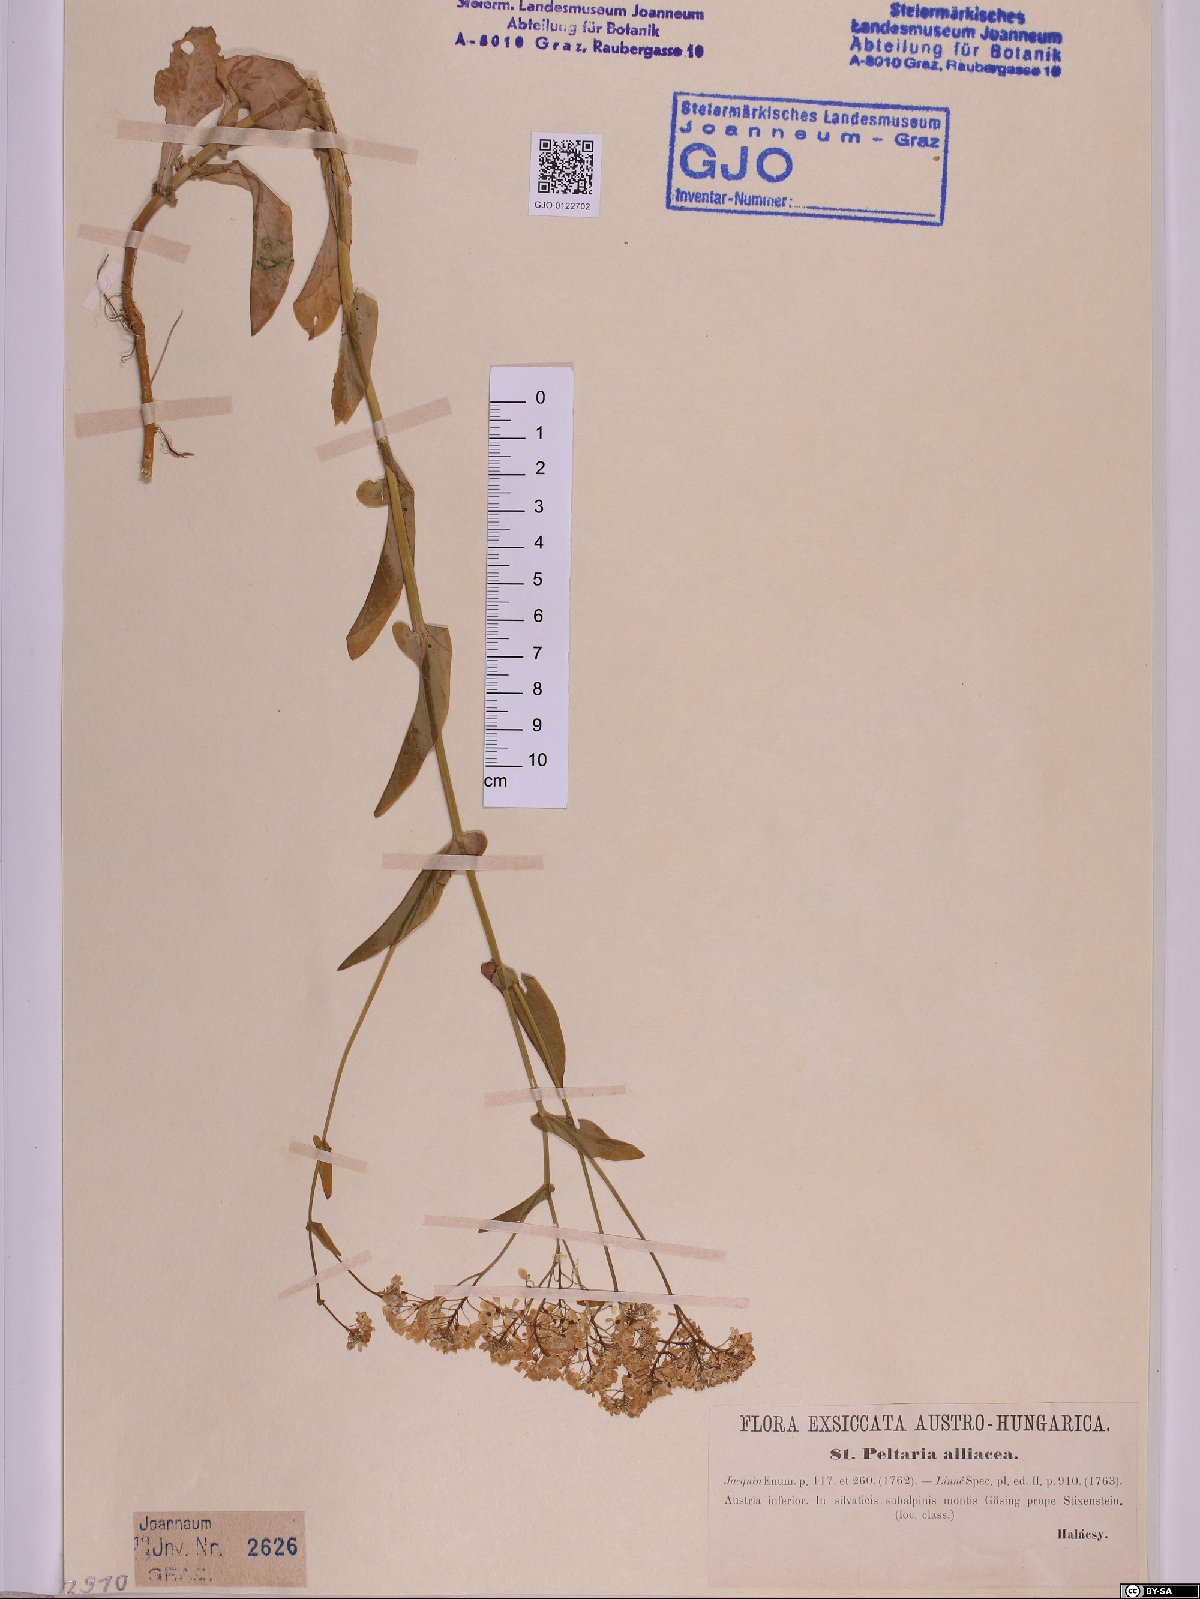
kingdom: Plantae
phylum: Tracheophyta
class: Magnoliopsida
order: Brassicales
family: Brassicaceae
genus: Peltaria
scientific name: Peltaria alliacea
